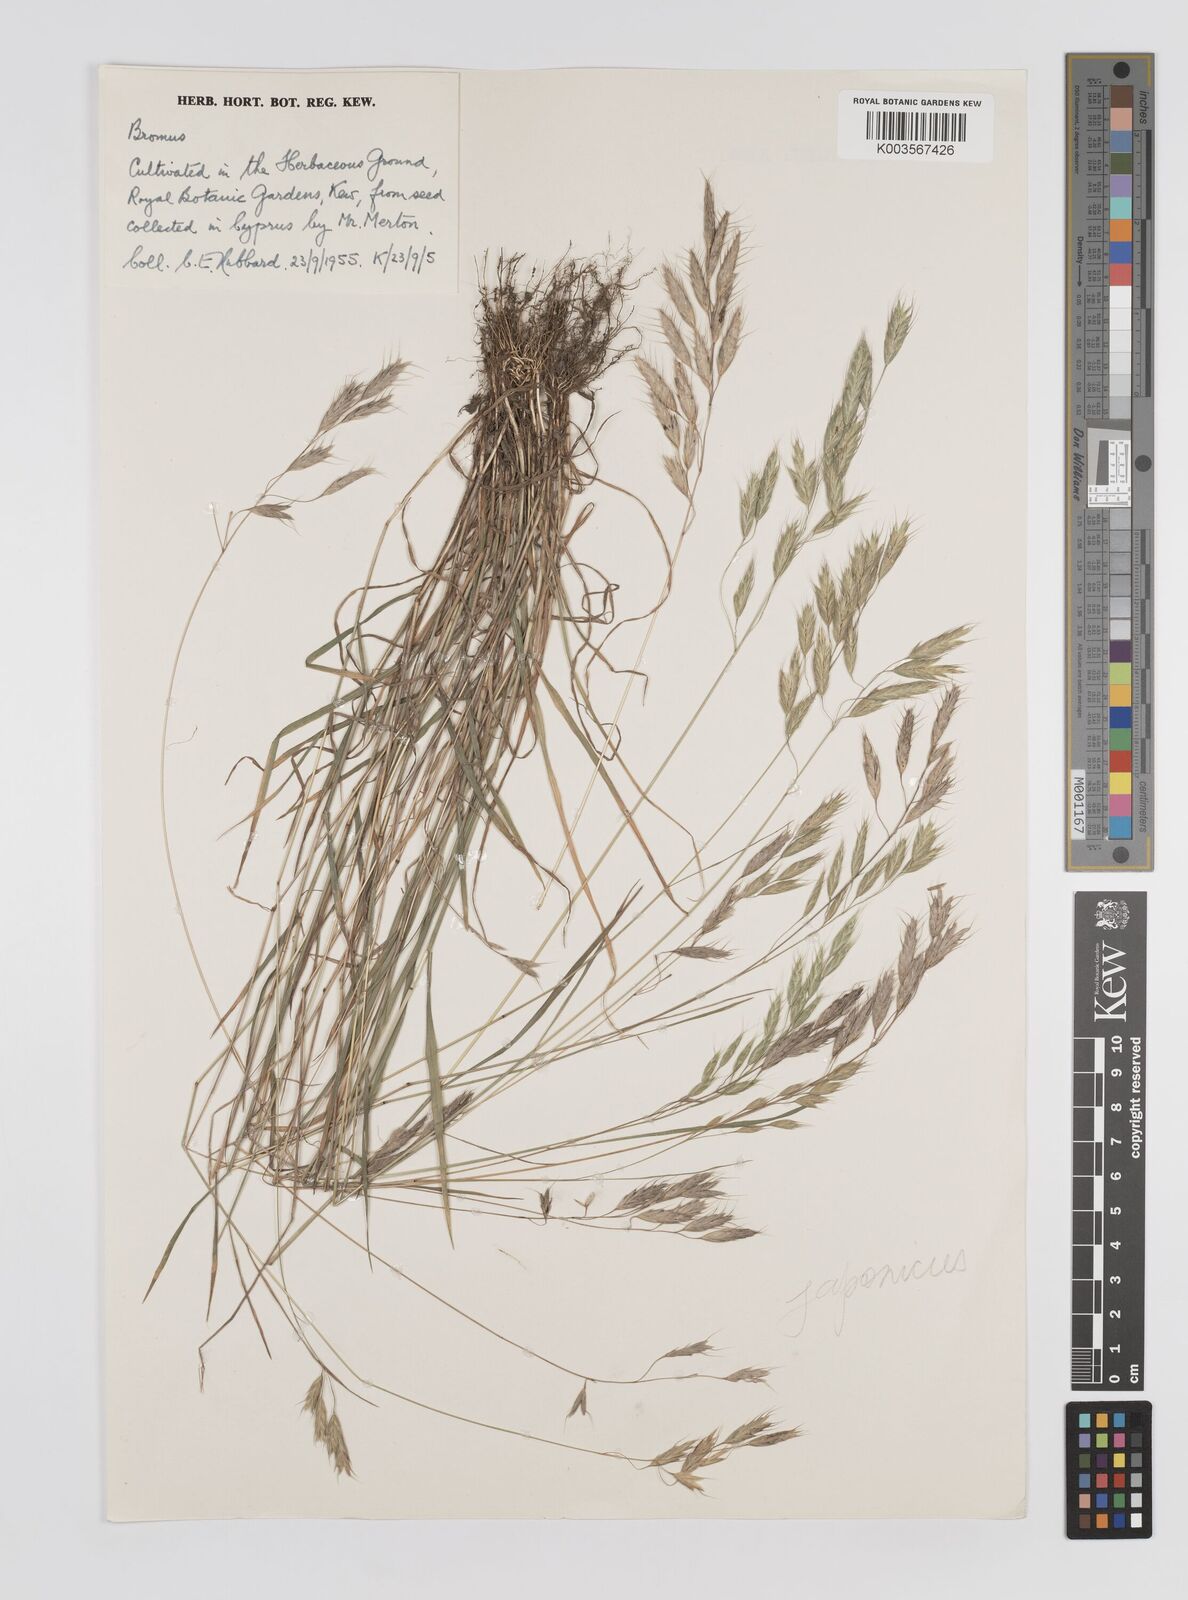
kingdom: Plantae
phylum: Tracheophyta
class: Liliopsida
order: Poales
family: Poaceae
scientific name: Poaceae
